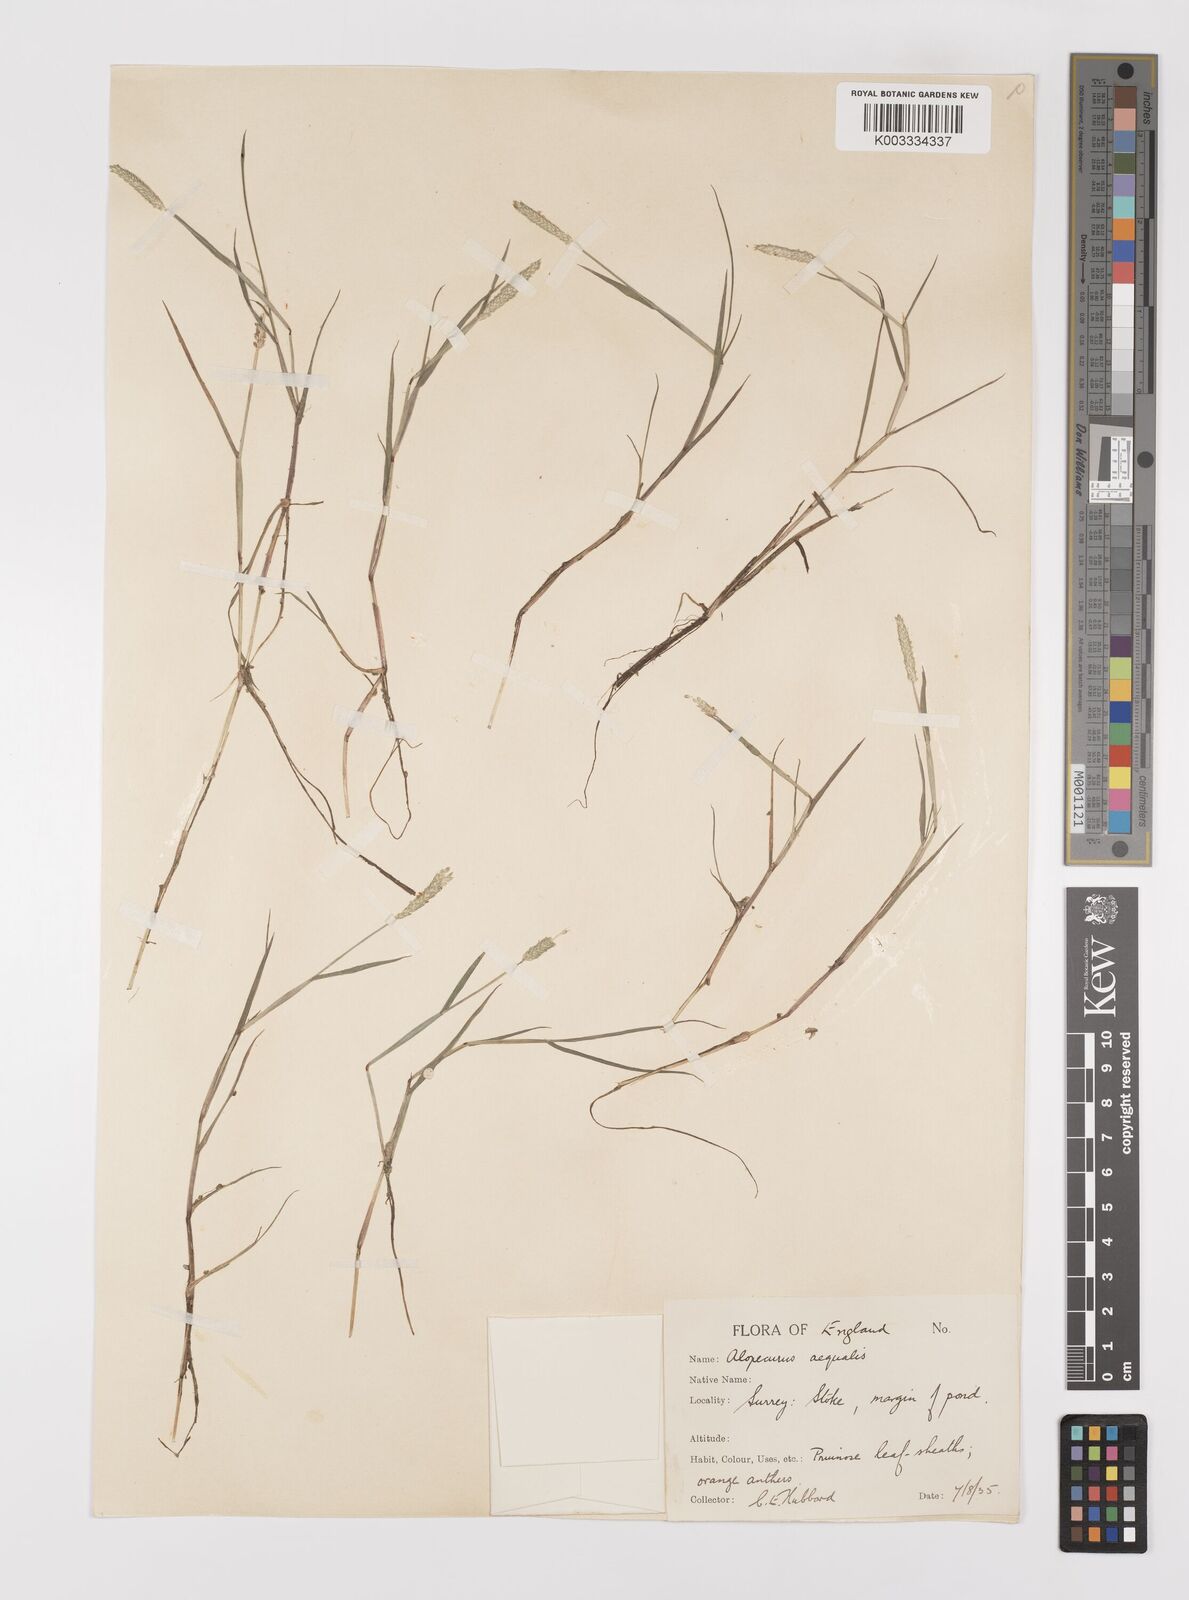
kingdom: Plantae
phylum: Tracheophyta
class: Liliopsida
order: Poales
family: Poaceae
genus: Alopecurus
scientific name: Alopecurus aequalis
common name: Orange foxtail
